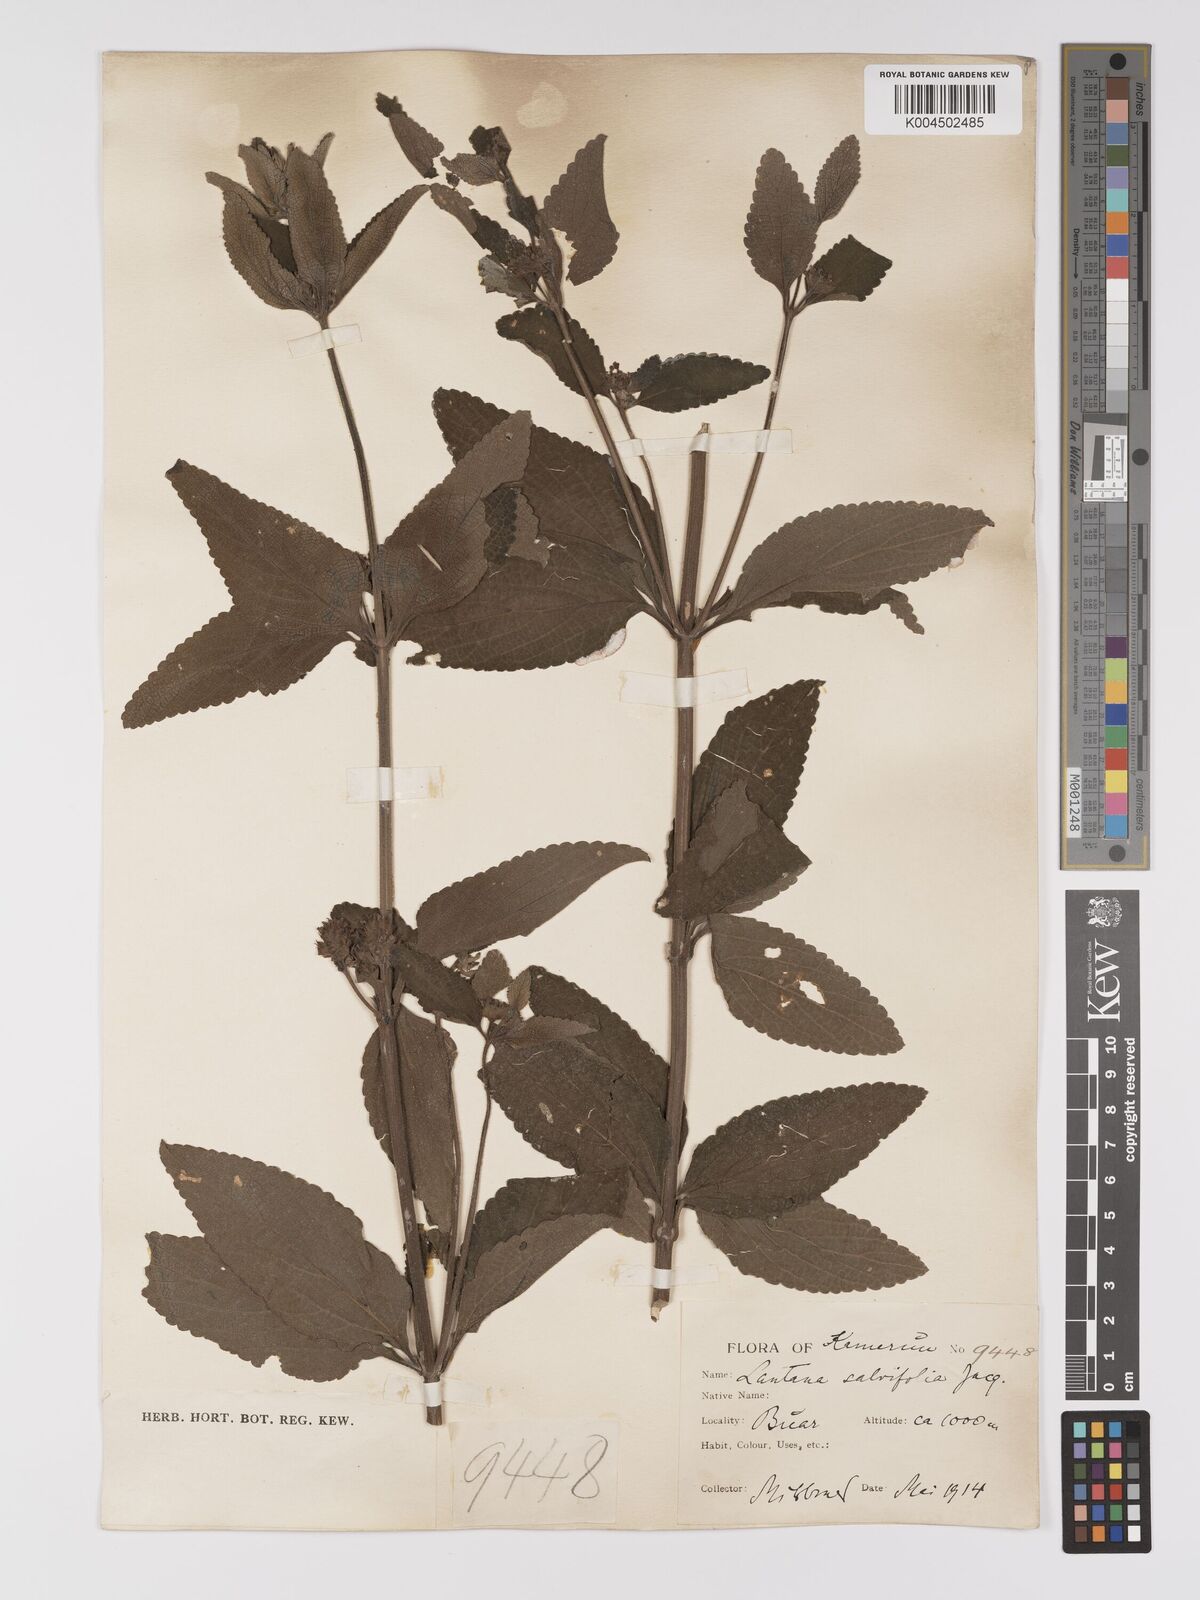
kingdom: Plantae
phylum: Tracheophyta
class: Magnoliopsida
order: Lamiales
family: Verbenaceae
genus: Lantana
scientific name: Lantana ukambensis
